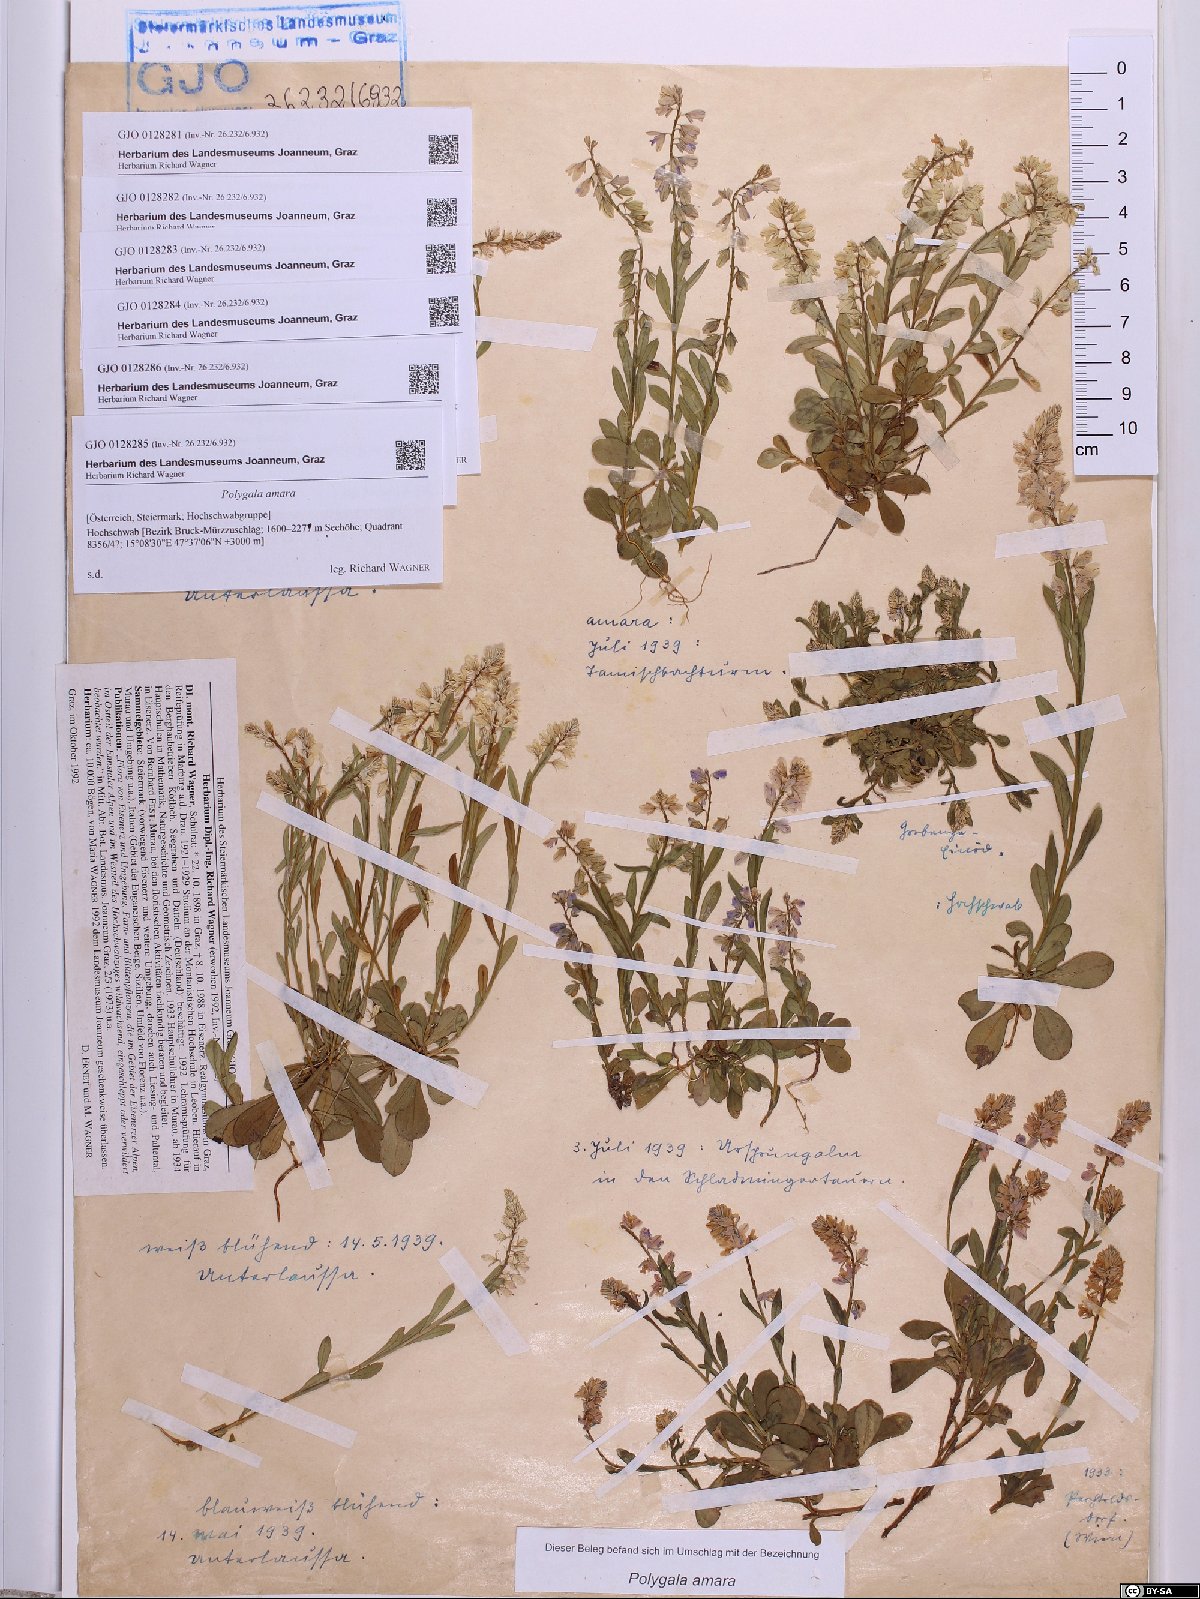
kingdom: Plantae
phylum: Tracheophyta
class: Magnoliopsida
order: Fabales
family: Polygalaceae
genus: Polygala
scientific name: Polygala amara
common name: Milkwort
